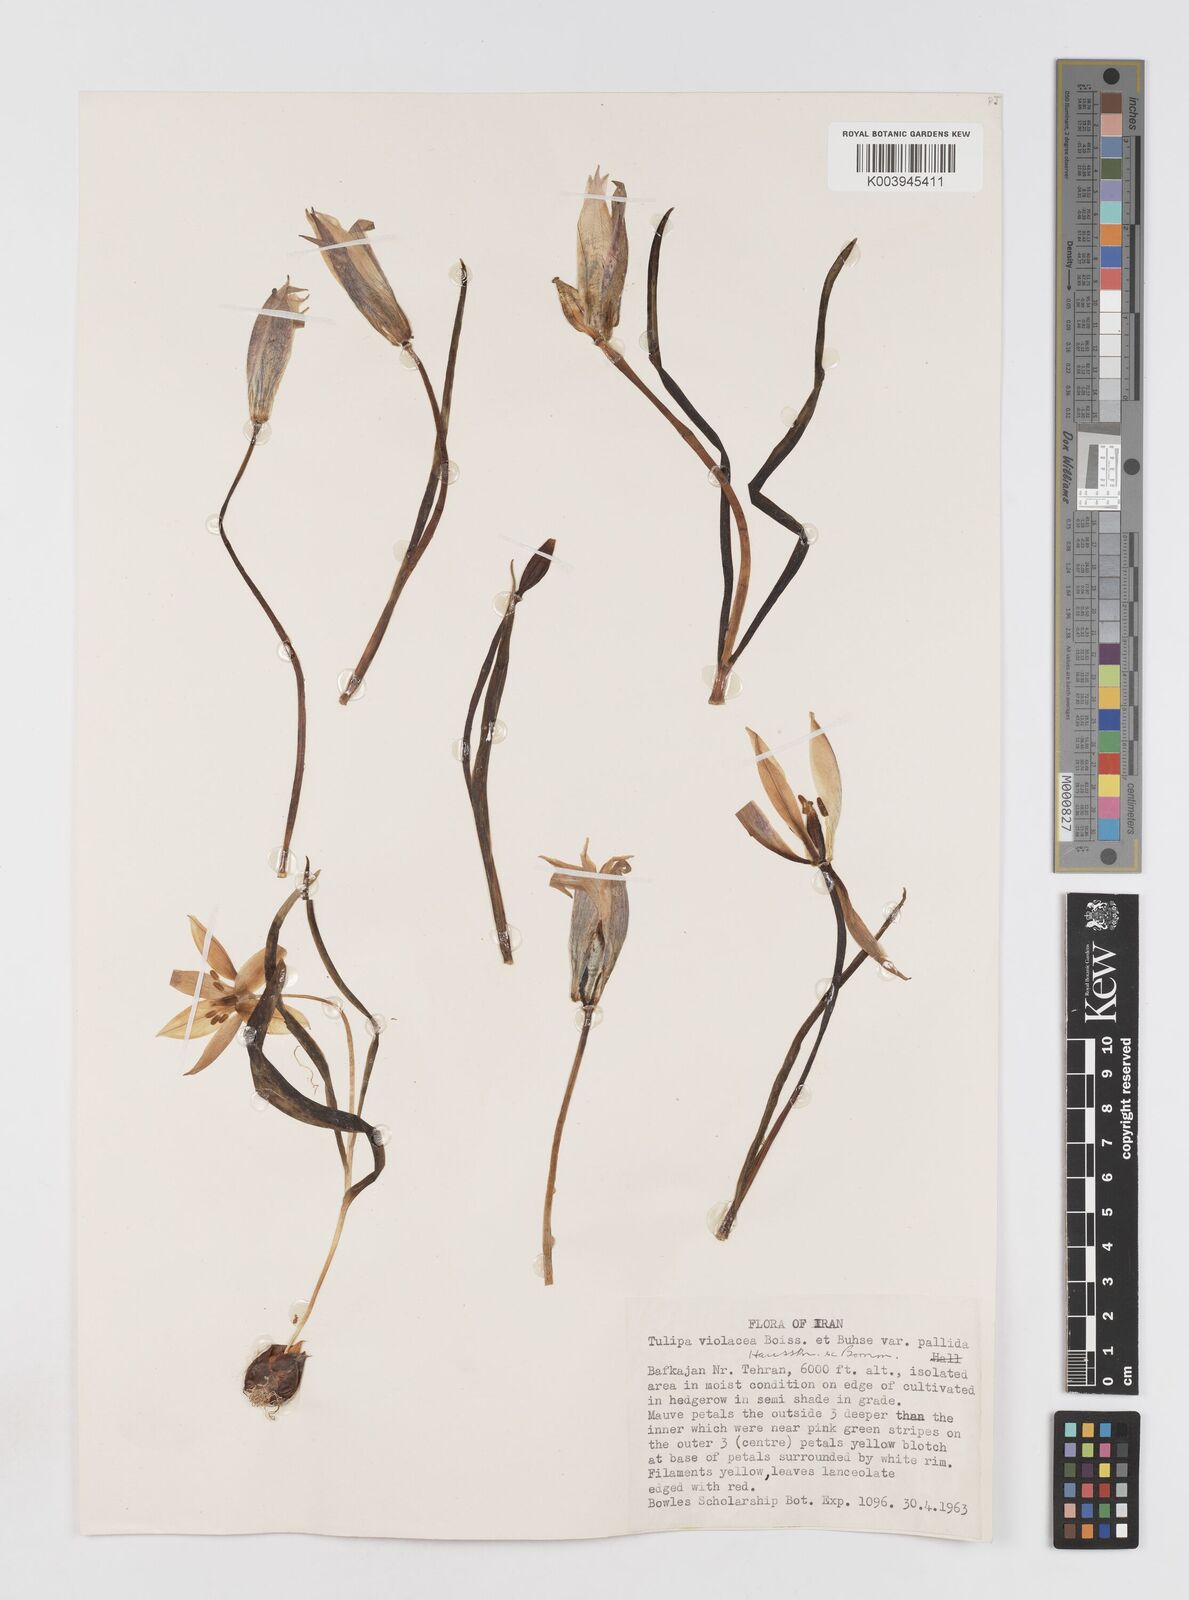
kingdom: Plantae
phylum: Tracheophyta
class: Liliopsida
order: Liliales
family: Liliaceae
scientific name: Liliaceae
